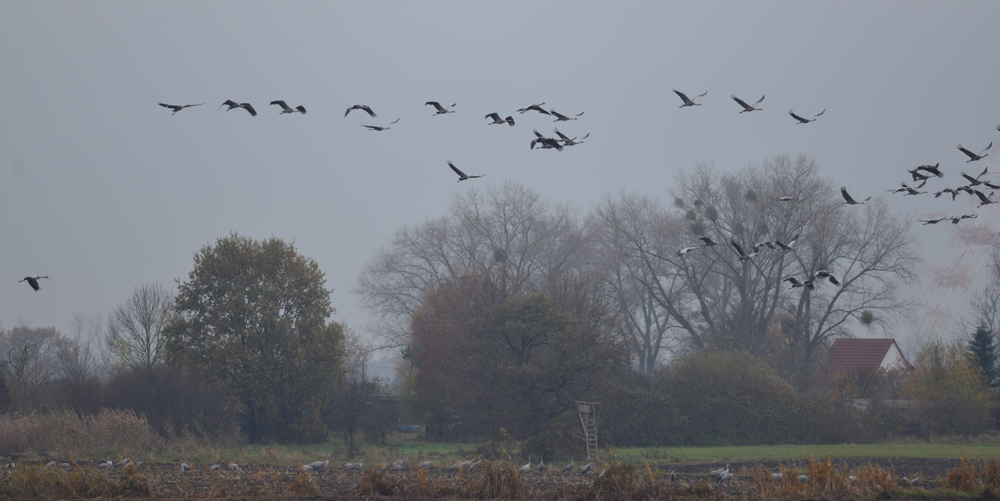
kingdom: Animalia
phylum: Chordata
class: Aves
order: Gruiformes
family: Gruidae
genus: Grus
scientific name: Grus grus
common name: Common crane
